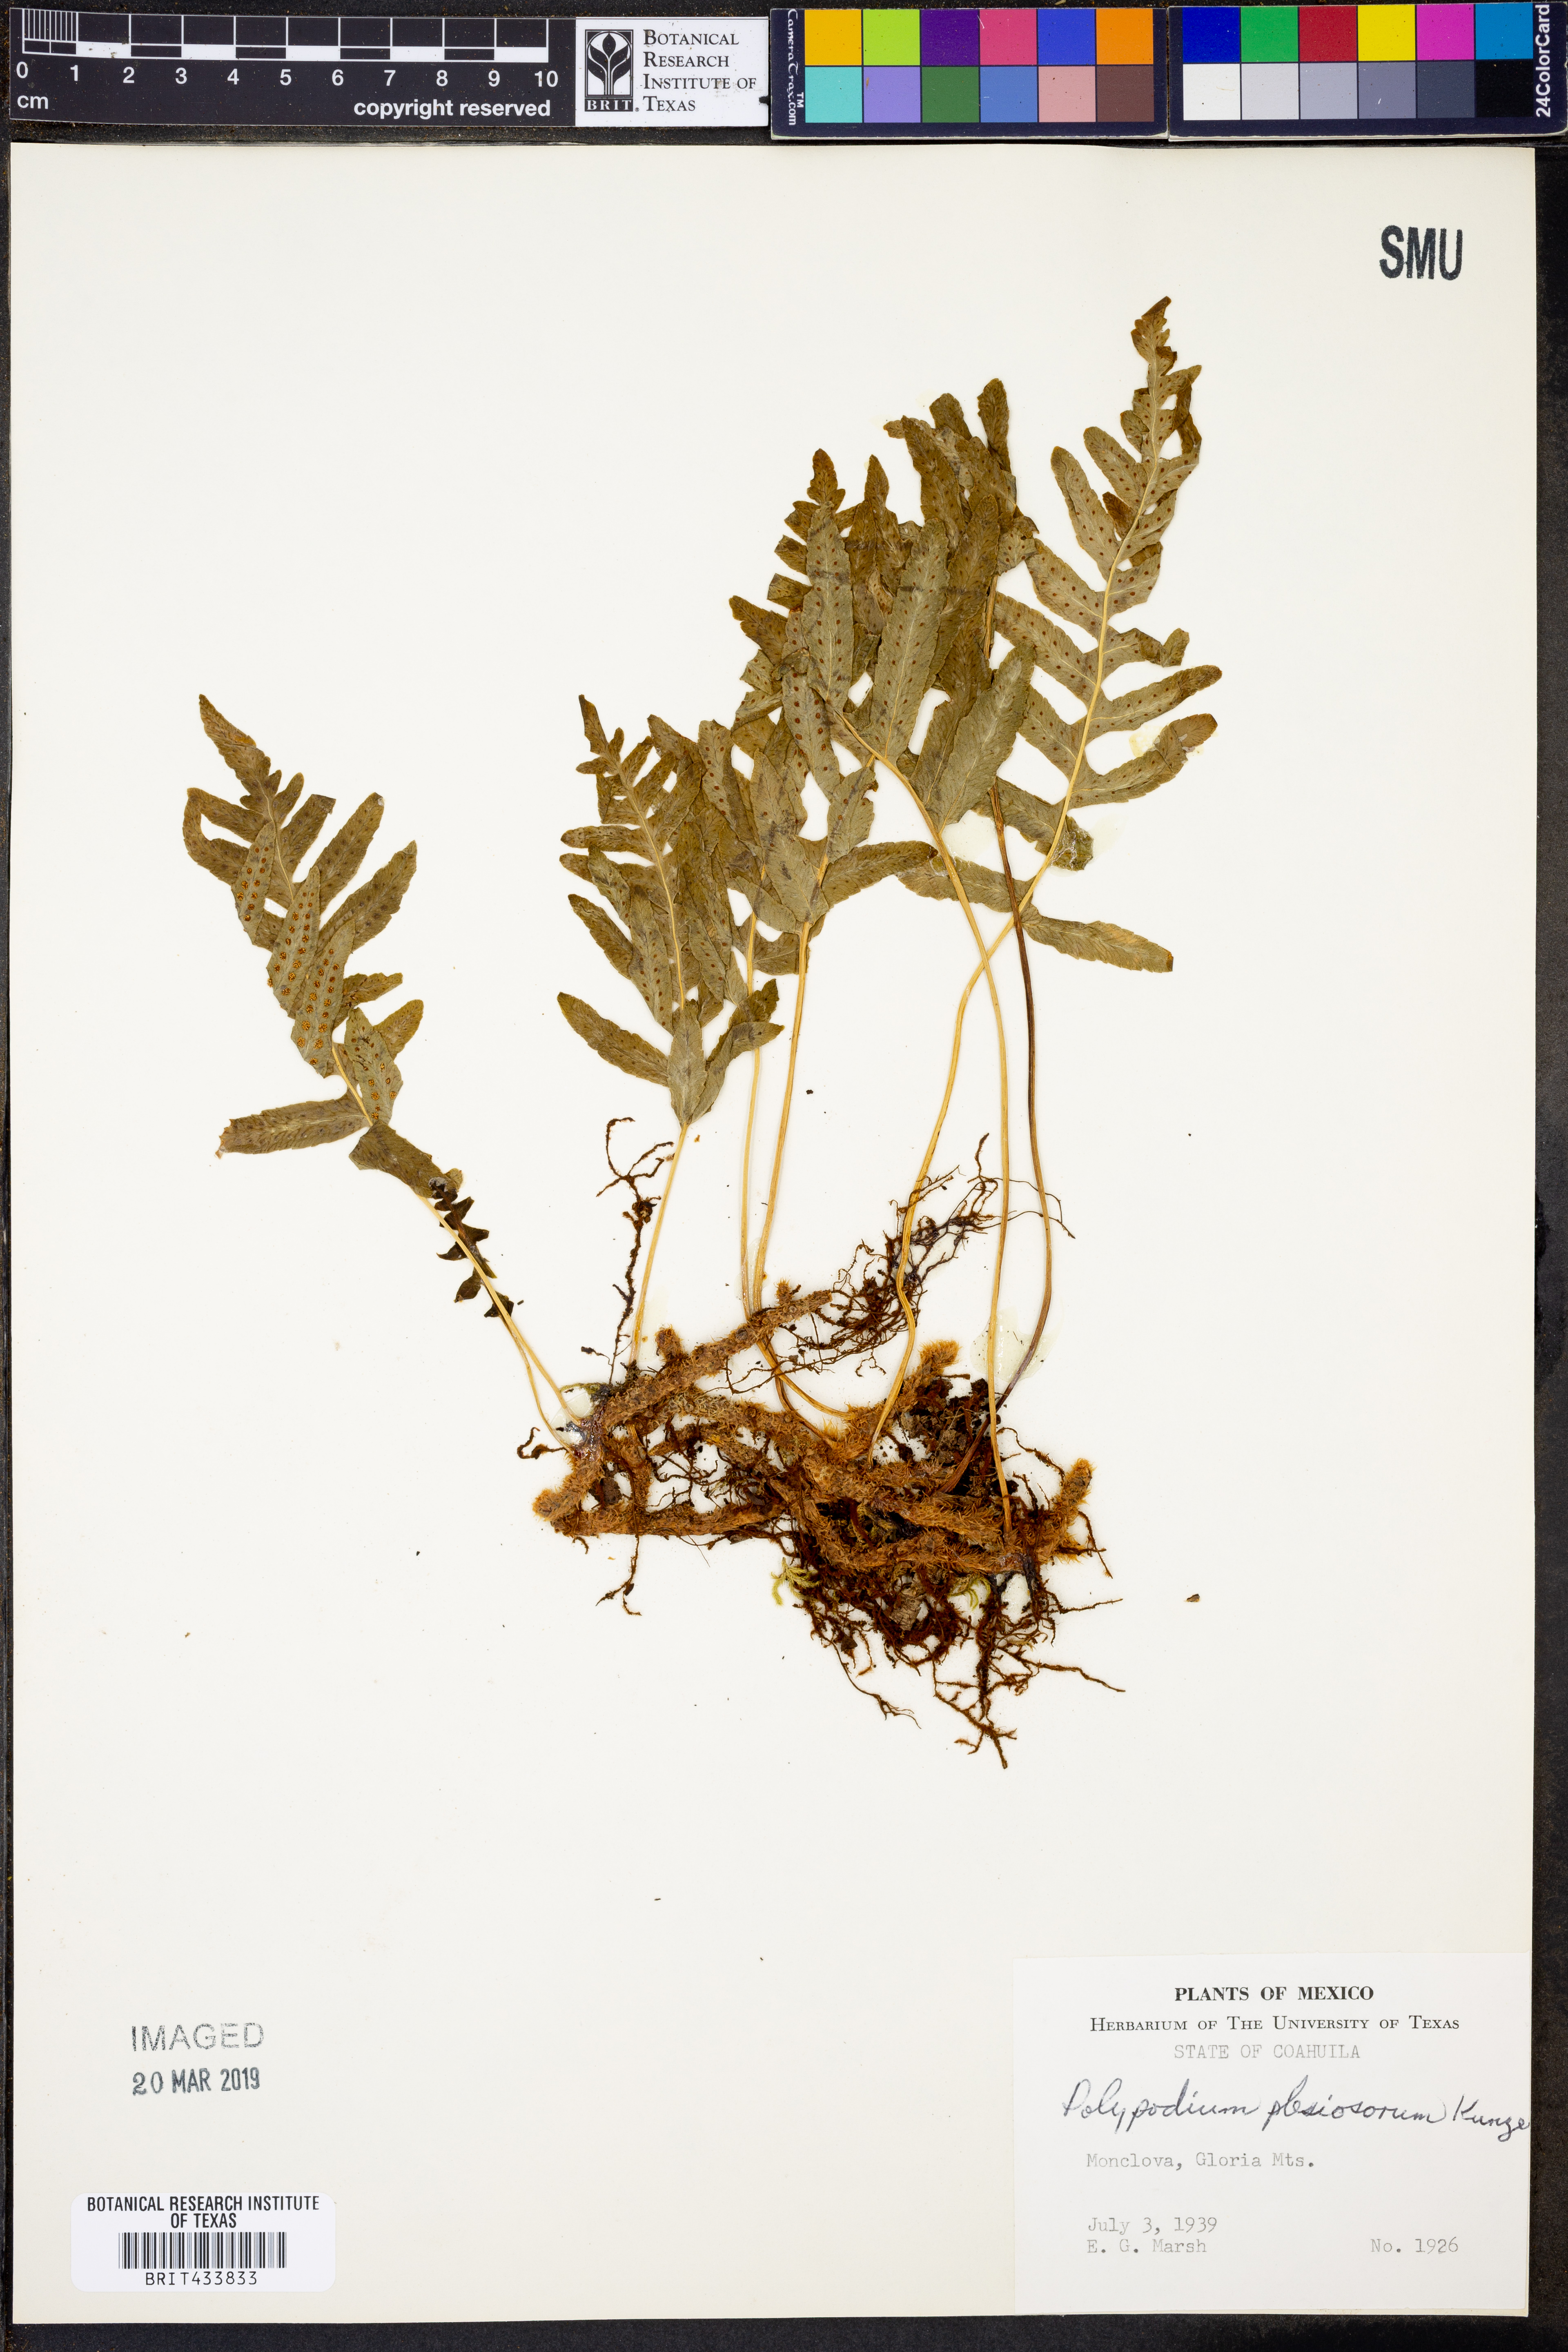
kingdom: Plantae
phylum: Tracheophyta
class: Polypodiopsida
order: Polypodiales
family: Polypodiaceae
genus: Polypodium
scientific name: Polypodium plesiosorum
